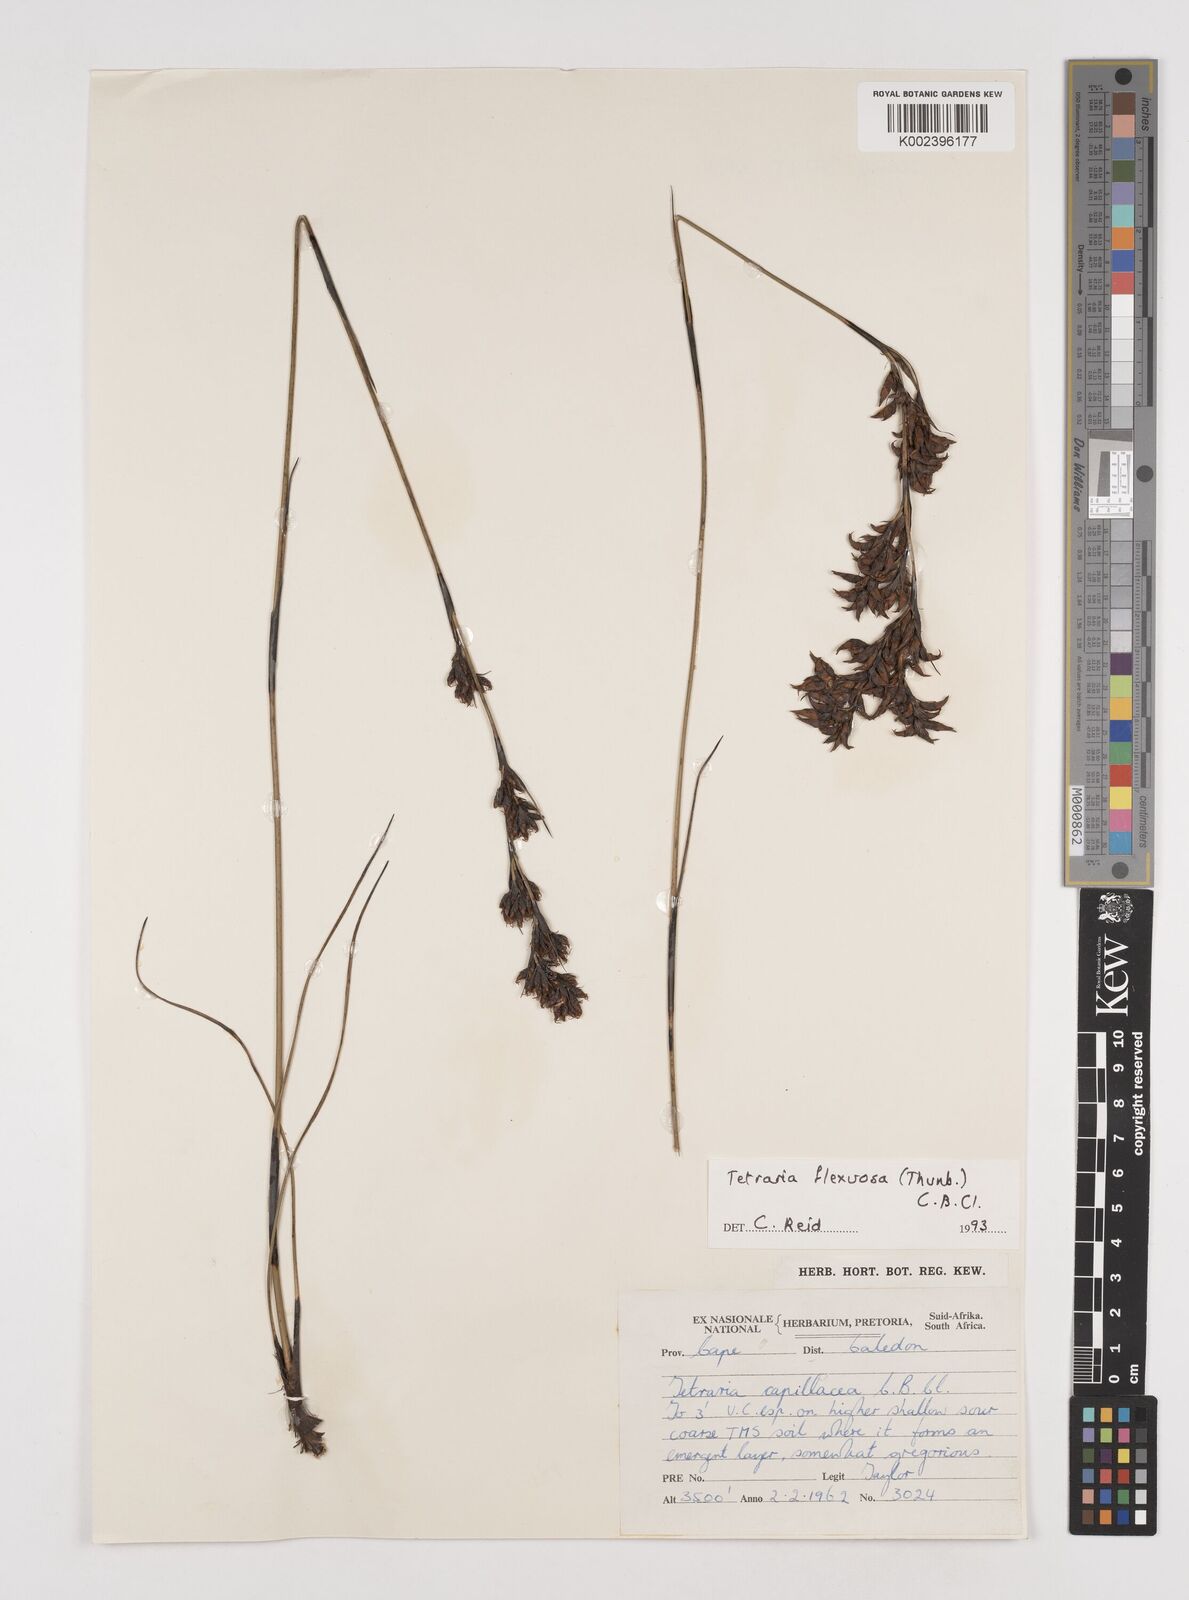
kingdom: Plantae
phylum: Tracheophyta
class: Liliopsida
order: Poales
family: Cyperaceae
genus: Tetraria
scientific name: Tetraria flexuosa
